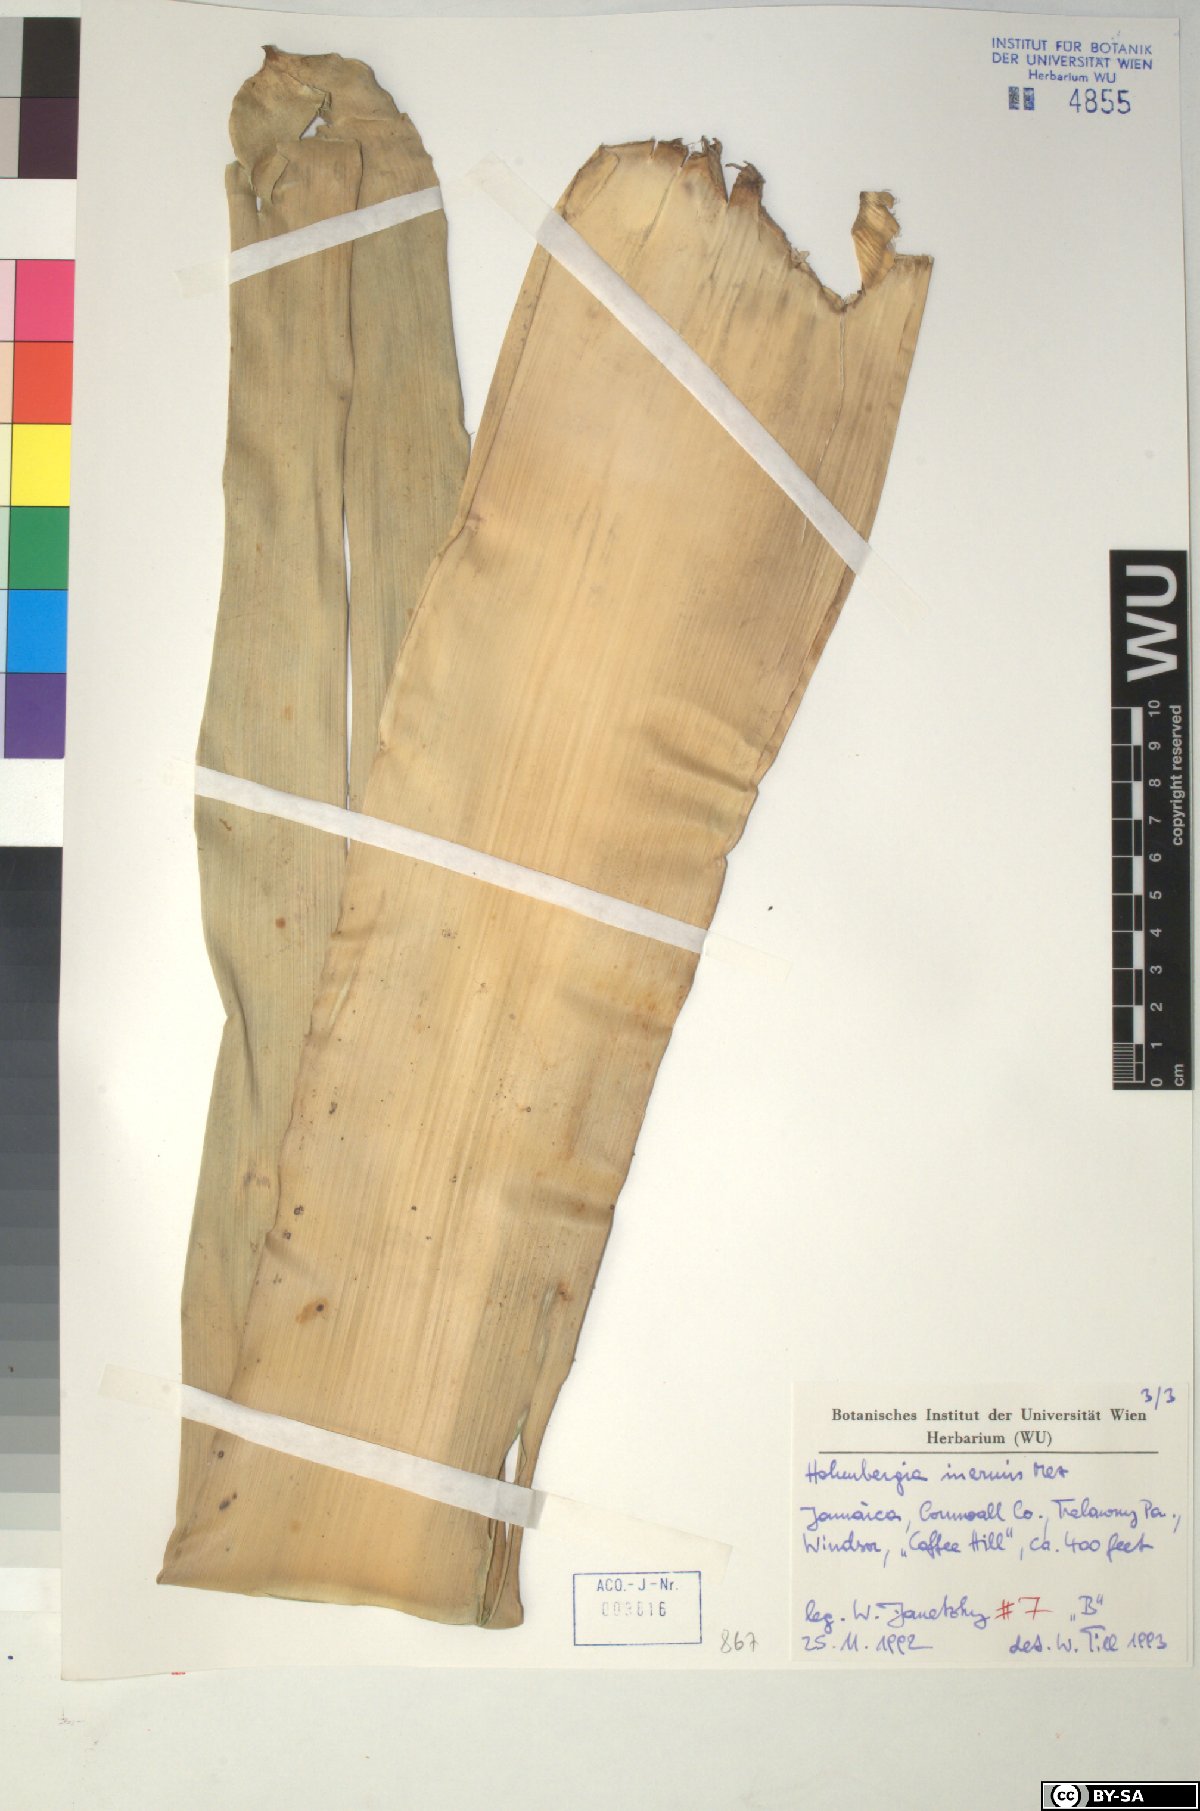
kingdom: Plantae
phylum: Tracheophyta
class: Liliopsida
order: Poales
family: Bromeliaceae
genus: Wittmackia
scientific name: Wittmackia inermis
